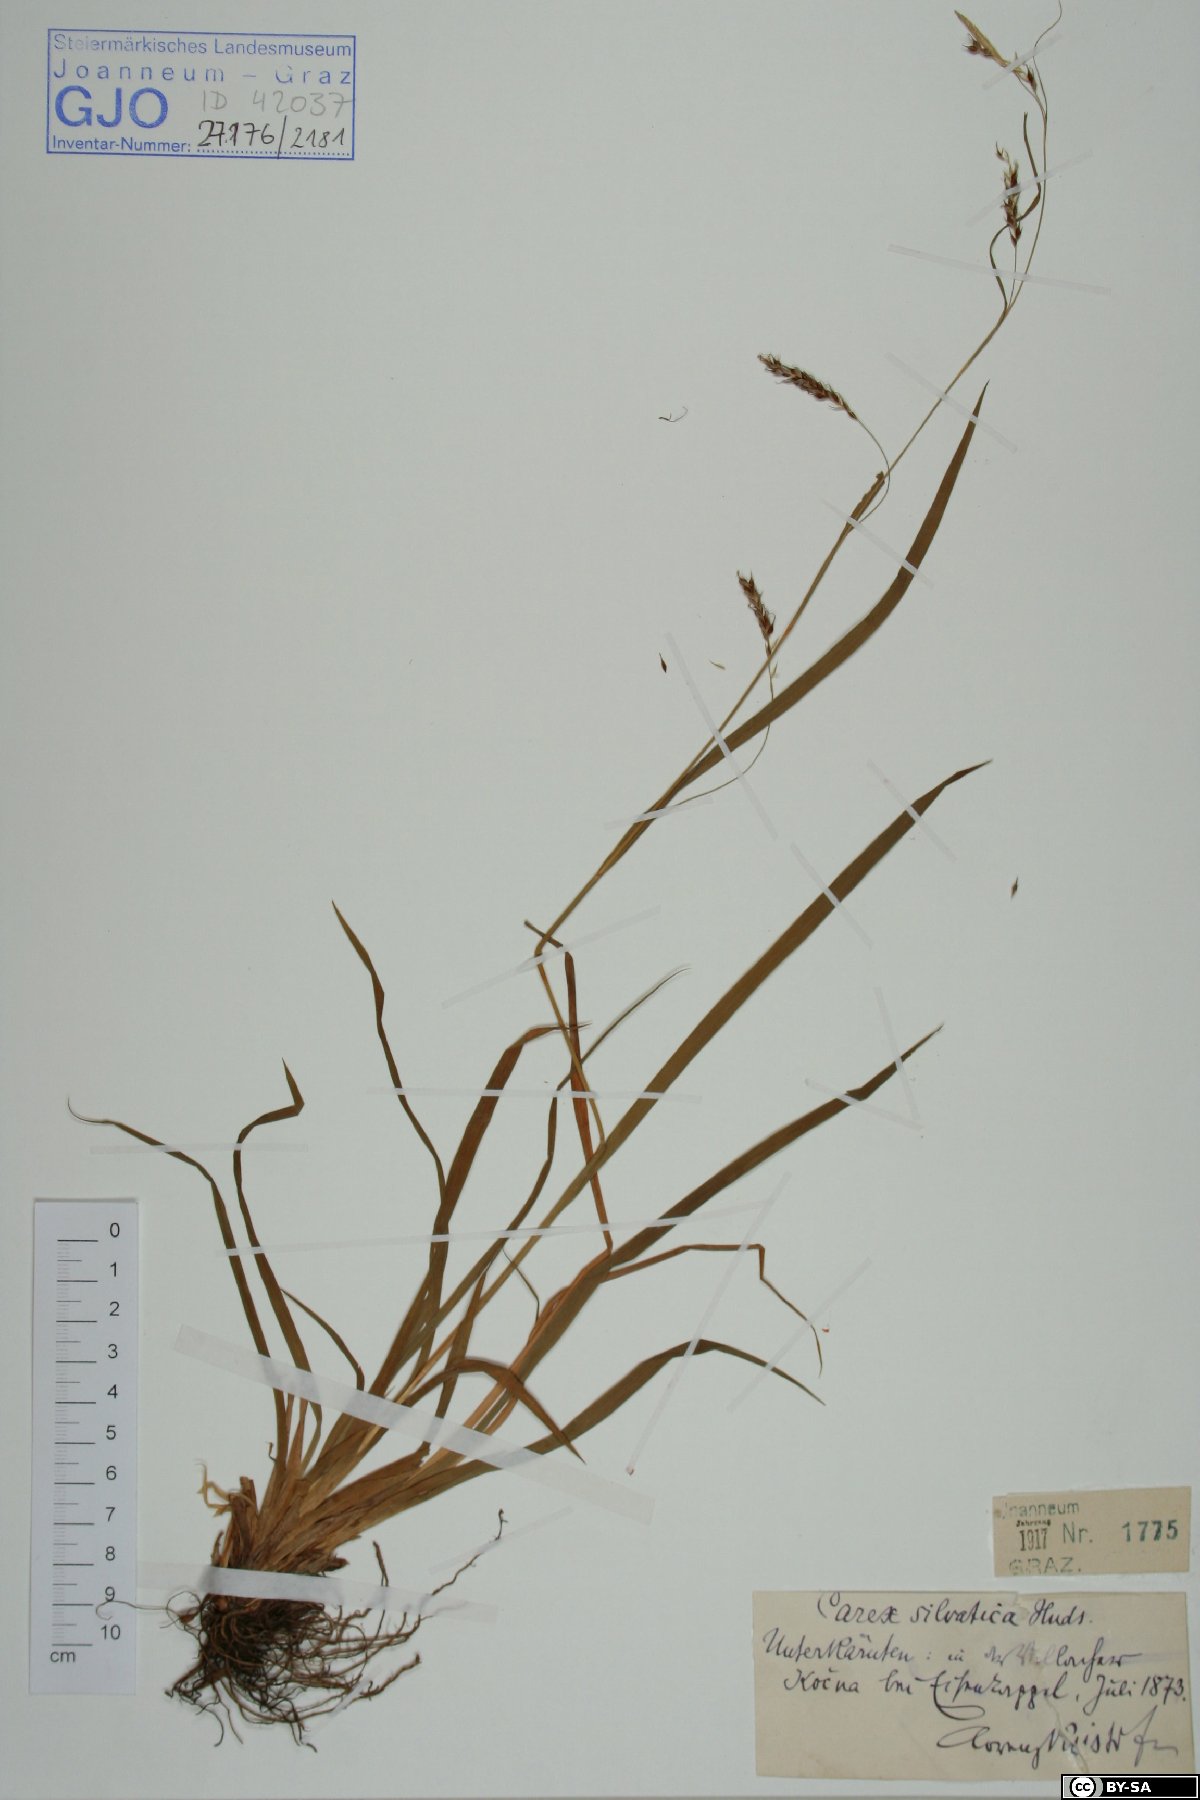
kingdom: Plantae
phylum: Tracheophyta
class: Liliopsida
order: Poales
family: Cyperaceae
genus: Carex
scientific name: Carex sylvatica
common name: Wood-sedge
